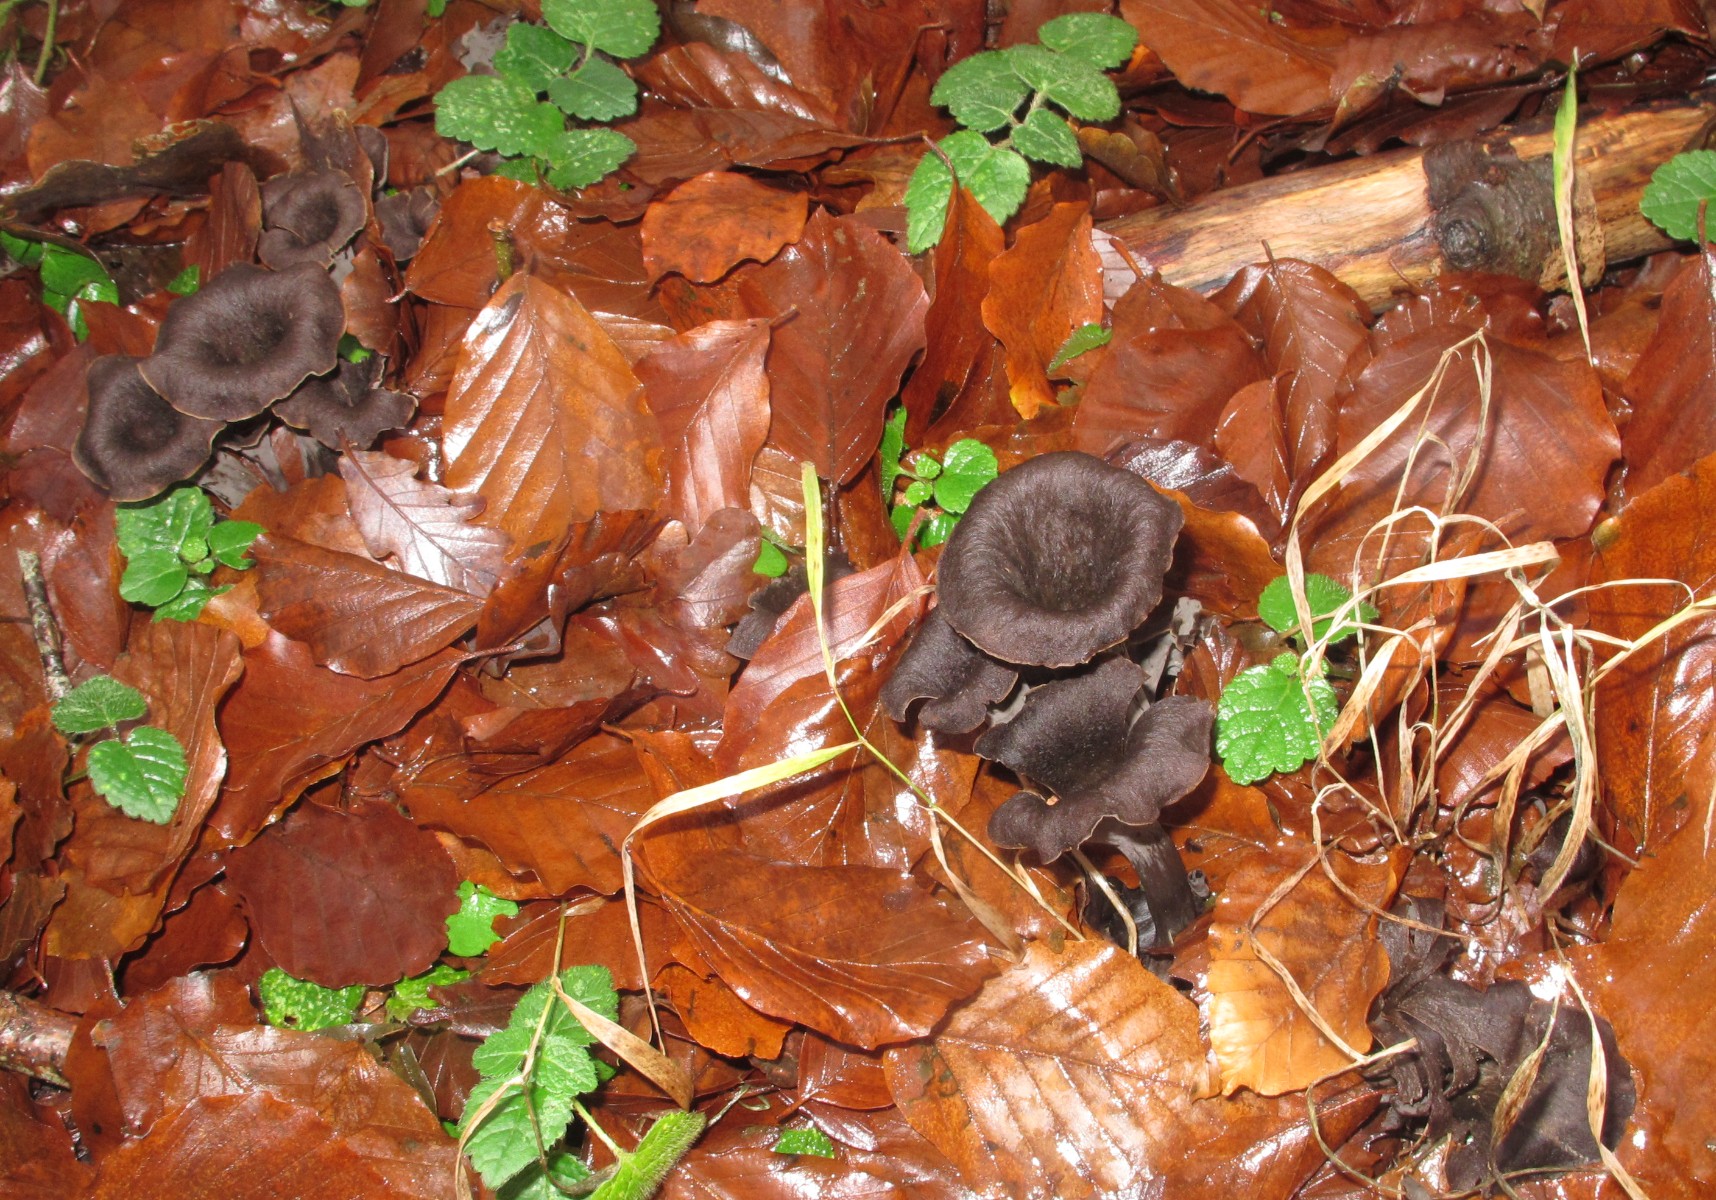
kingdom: Fungi
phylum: Basidiomycota
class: Agaricomycetes
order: Cantharellales
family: Hydnaceae
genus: Craterellus
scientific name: Craterellus cornucopioides
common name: trompetsvamp
